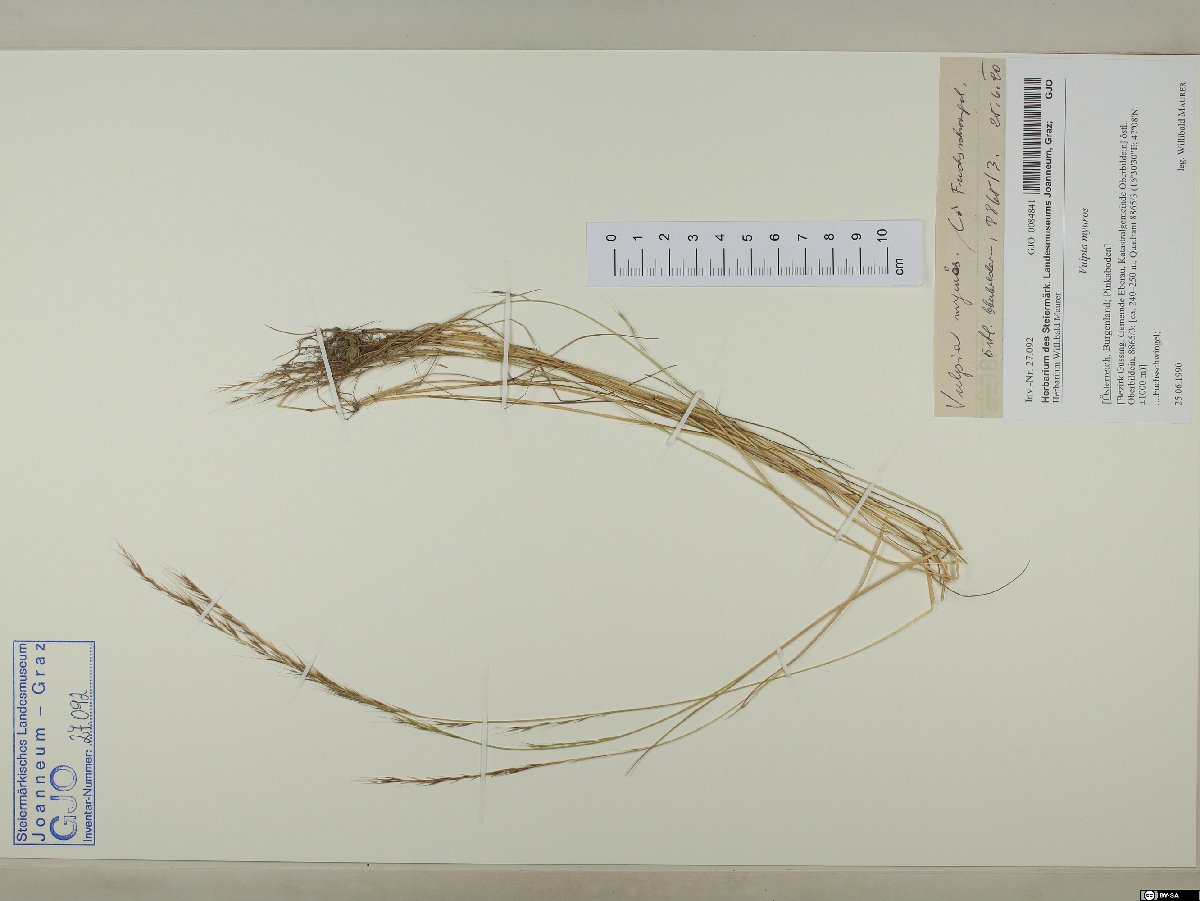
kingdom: Plantae
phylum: Tracheophyta
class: Liliopsida
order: Poales
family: Poaceae
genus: Festuca
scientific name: Festuca myuros
